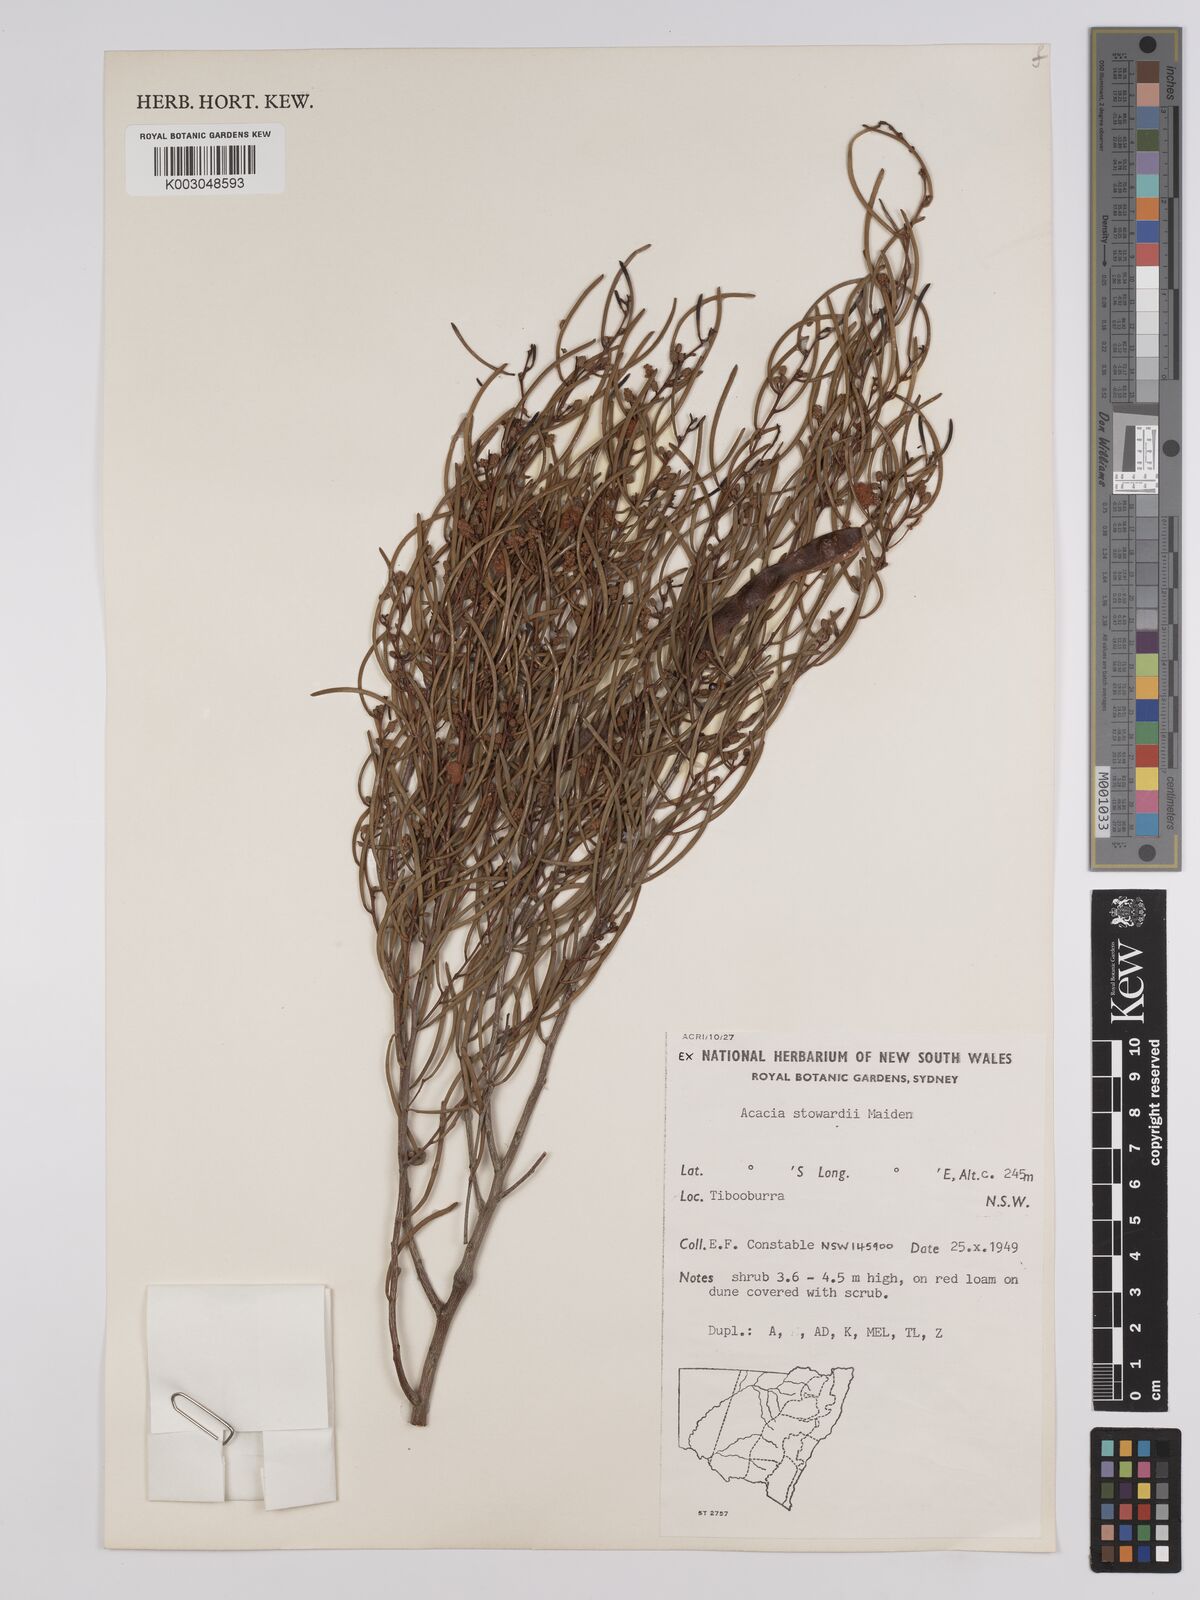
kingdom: Plantae
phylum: Tracheophyta
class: Magnoliopsida
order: Fabales
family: Fabaceae
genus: Acacia
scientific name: Acacia sibirica
